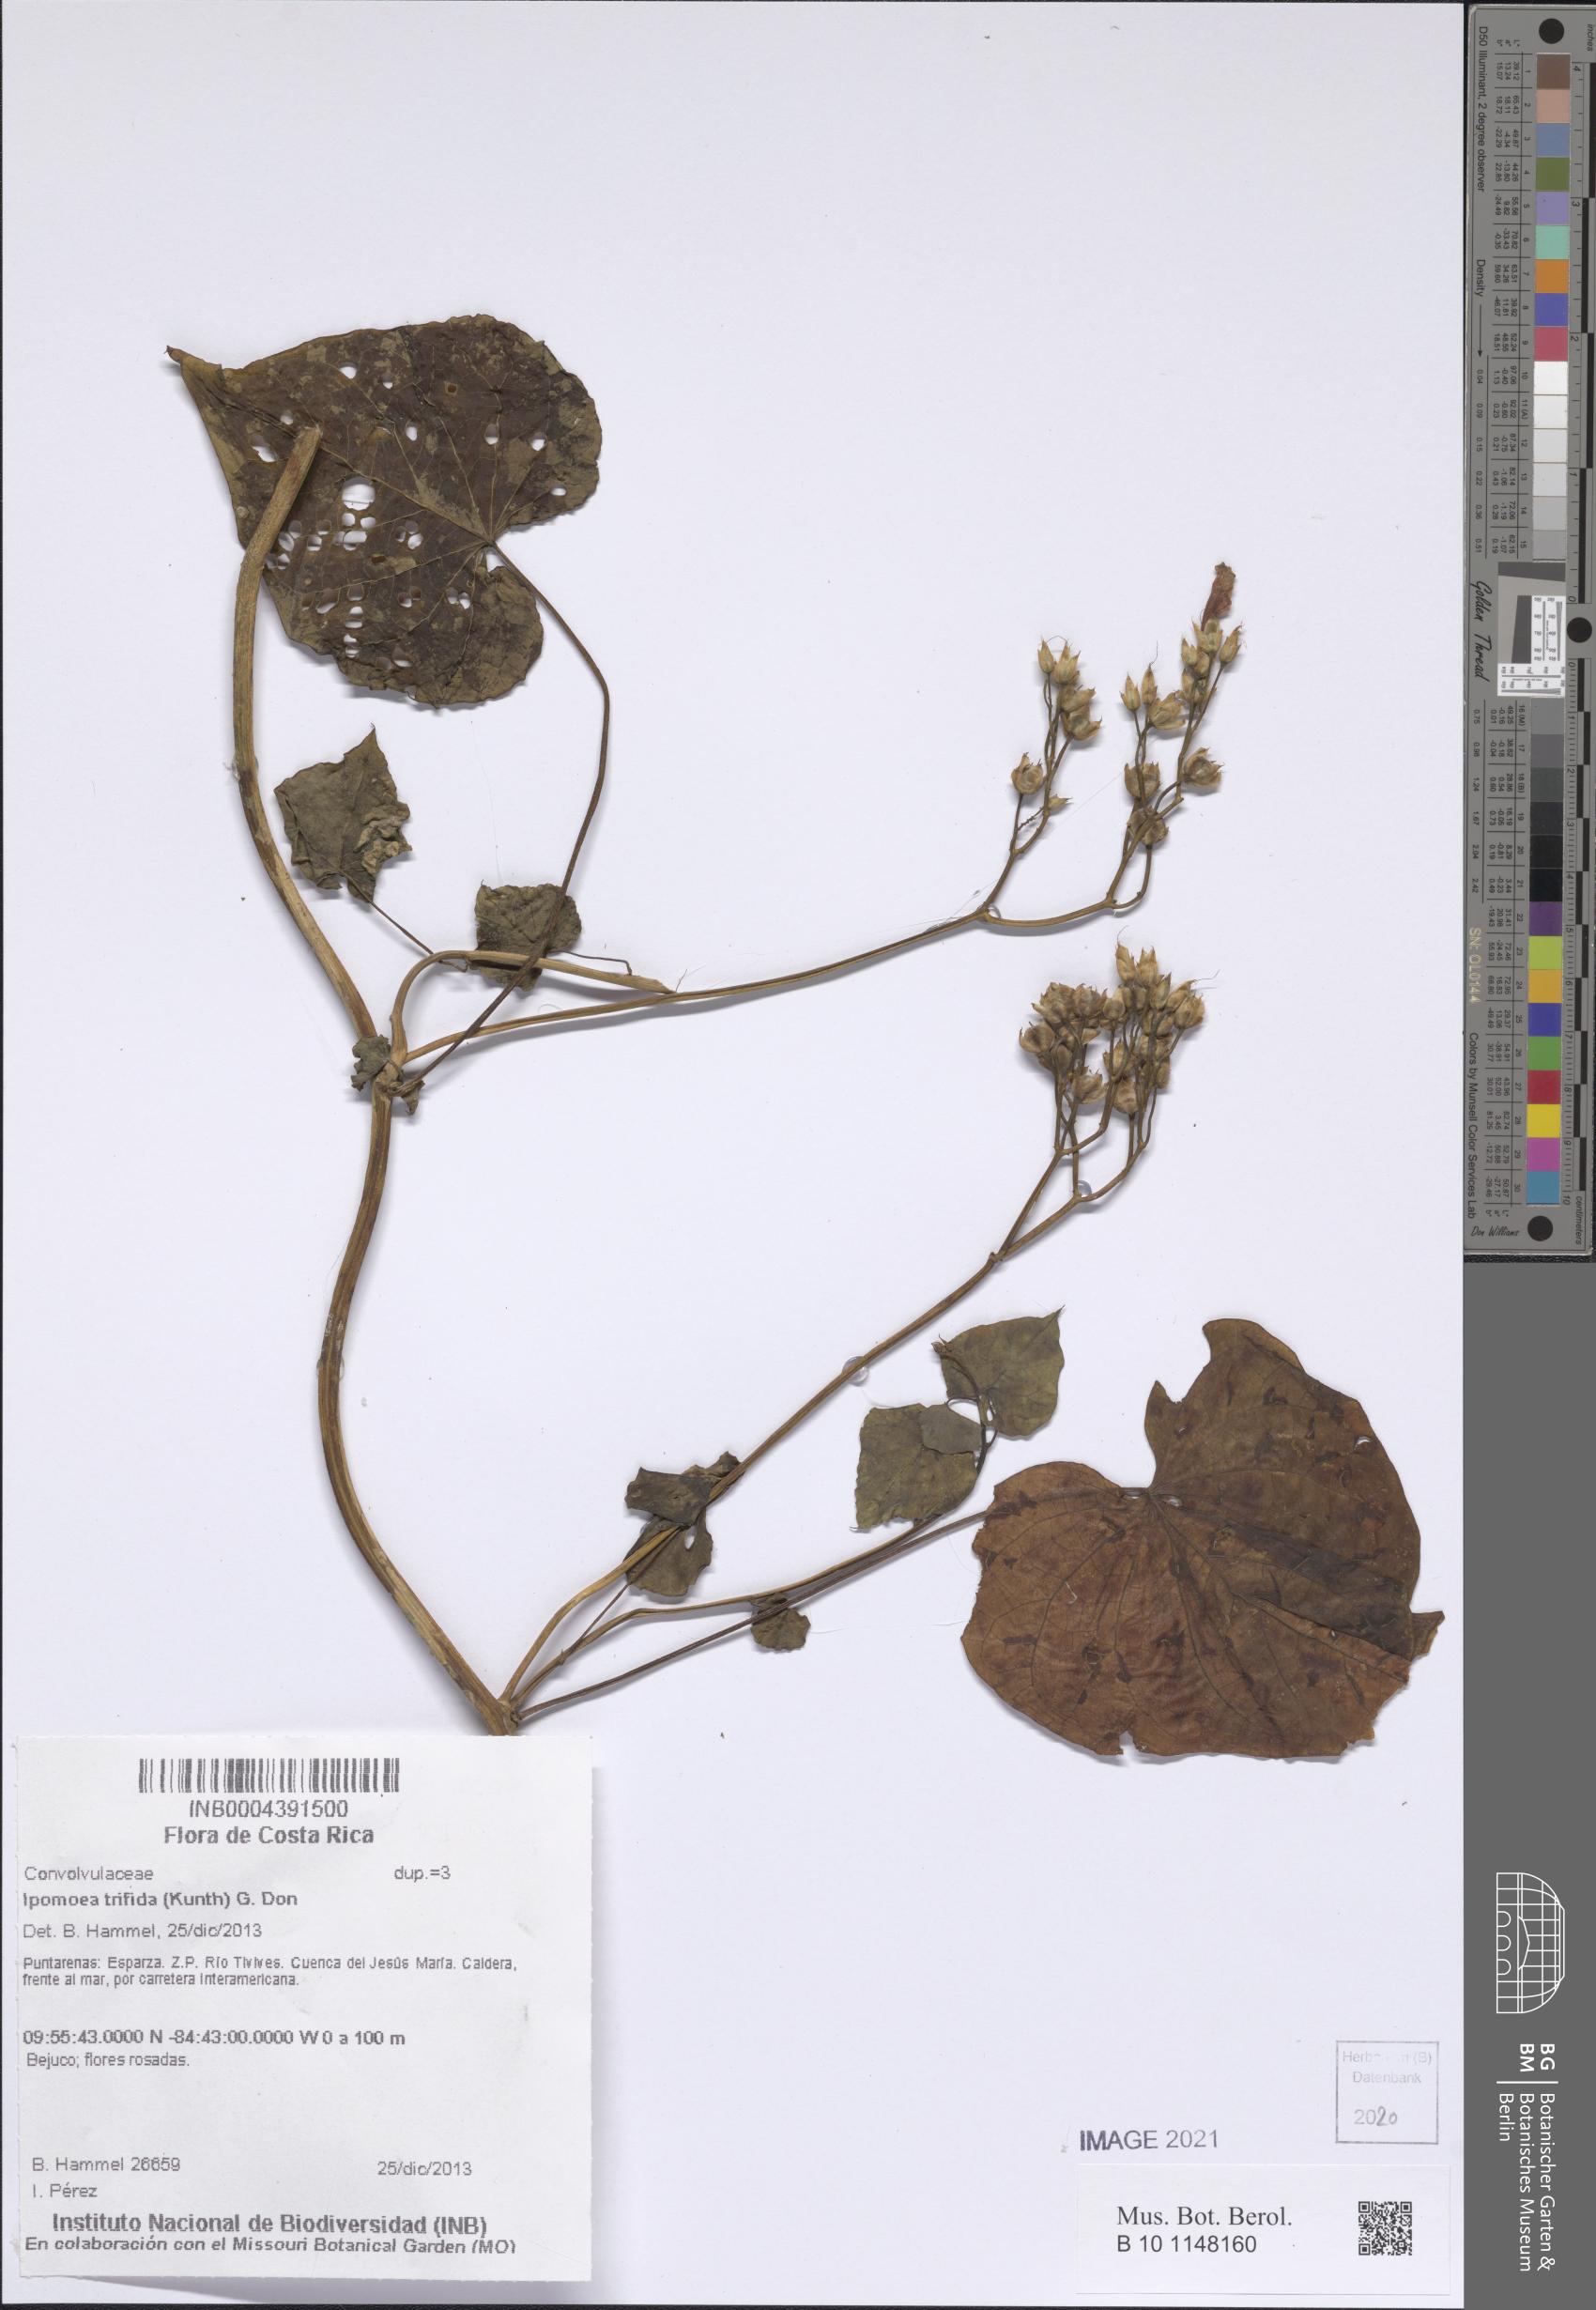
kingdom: Plantae
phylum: Tracheophyta
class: Magnoliopsida
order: Solanales
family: Convolvulaceae
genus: Ipomoea
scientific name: Ipomoea trifida
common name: Cotton morningglory
